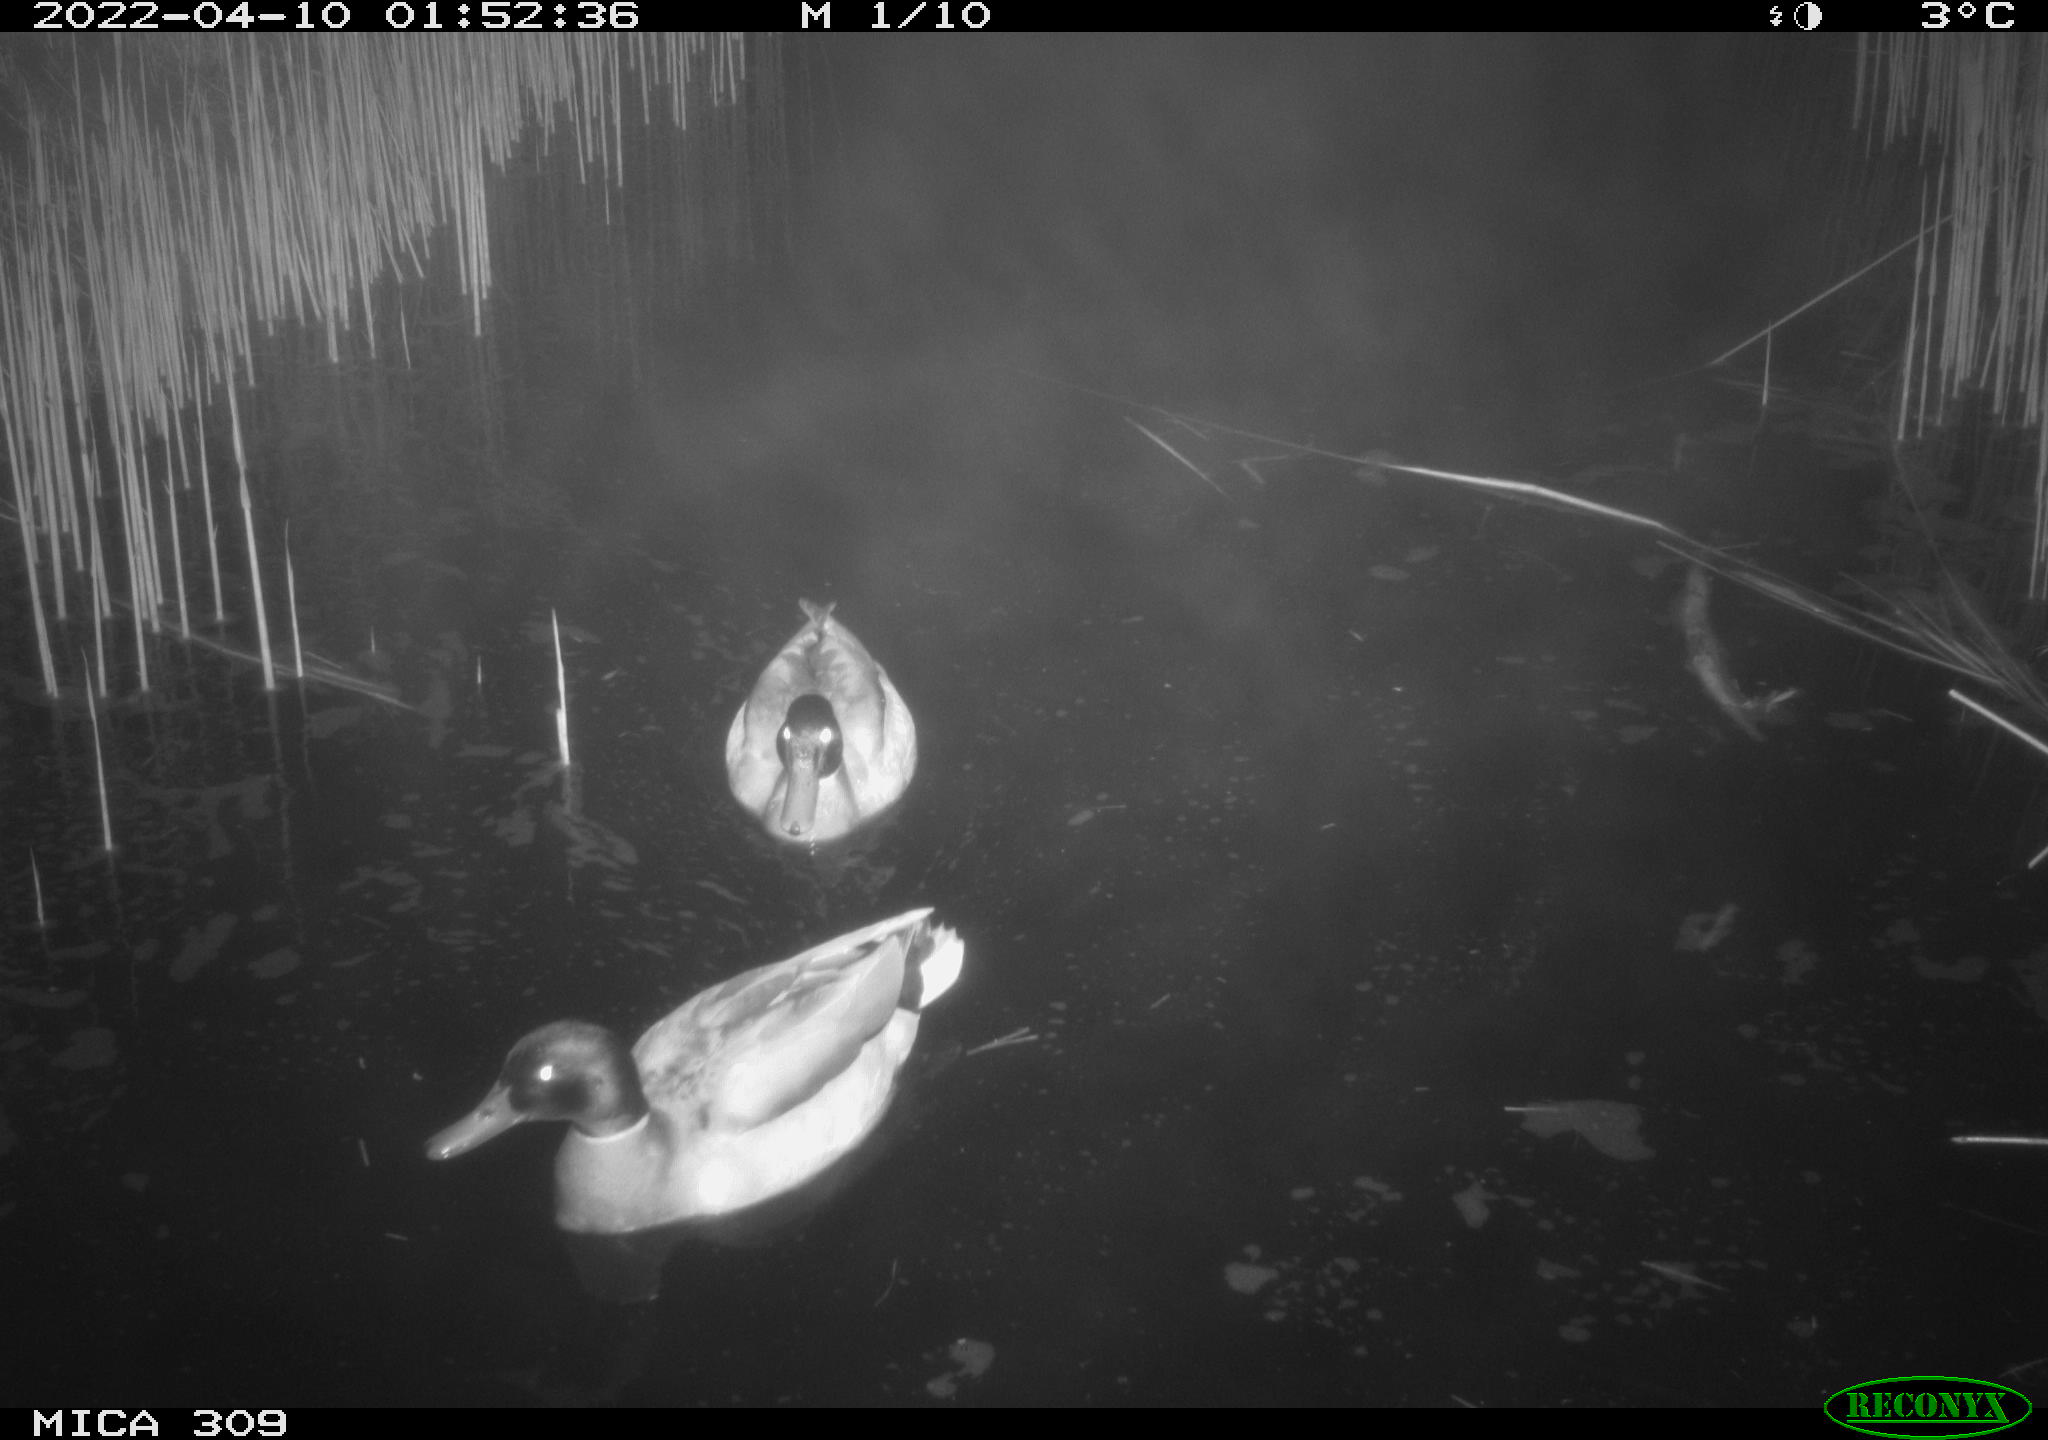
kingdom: Animalia
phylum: Chordata
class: Aves
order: Anseriformes
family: Anatidae
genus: Anas
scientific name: Anas platyrhynchos
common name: Mallard
